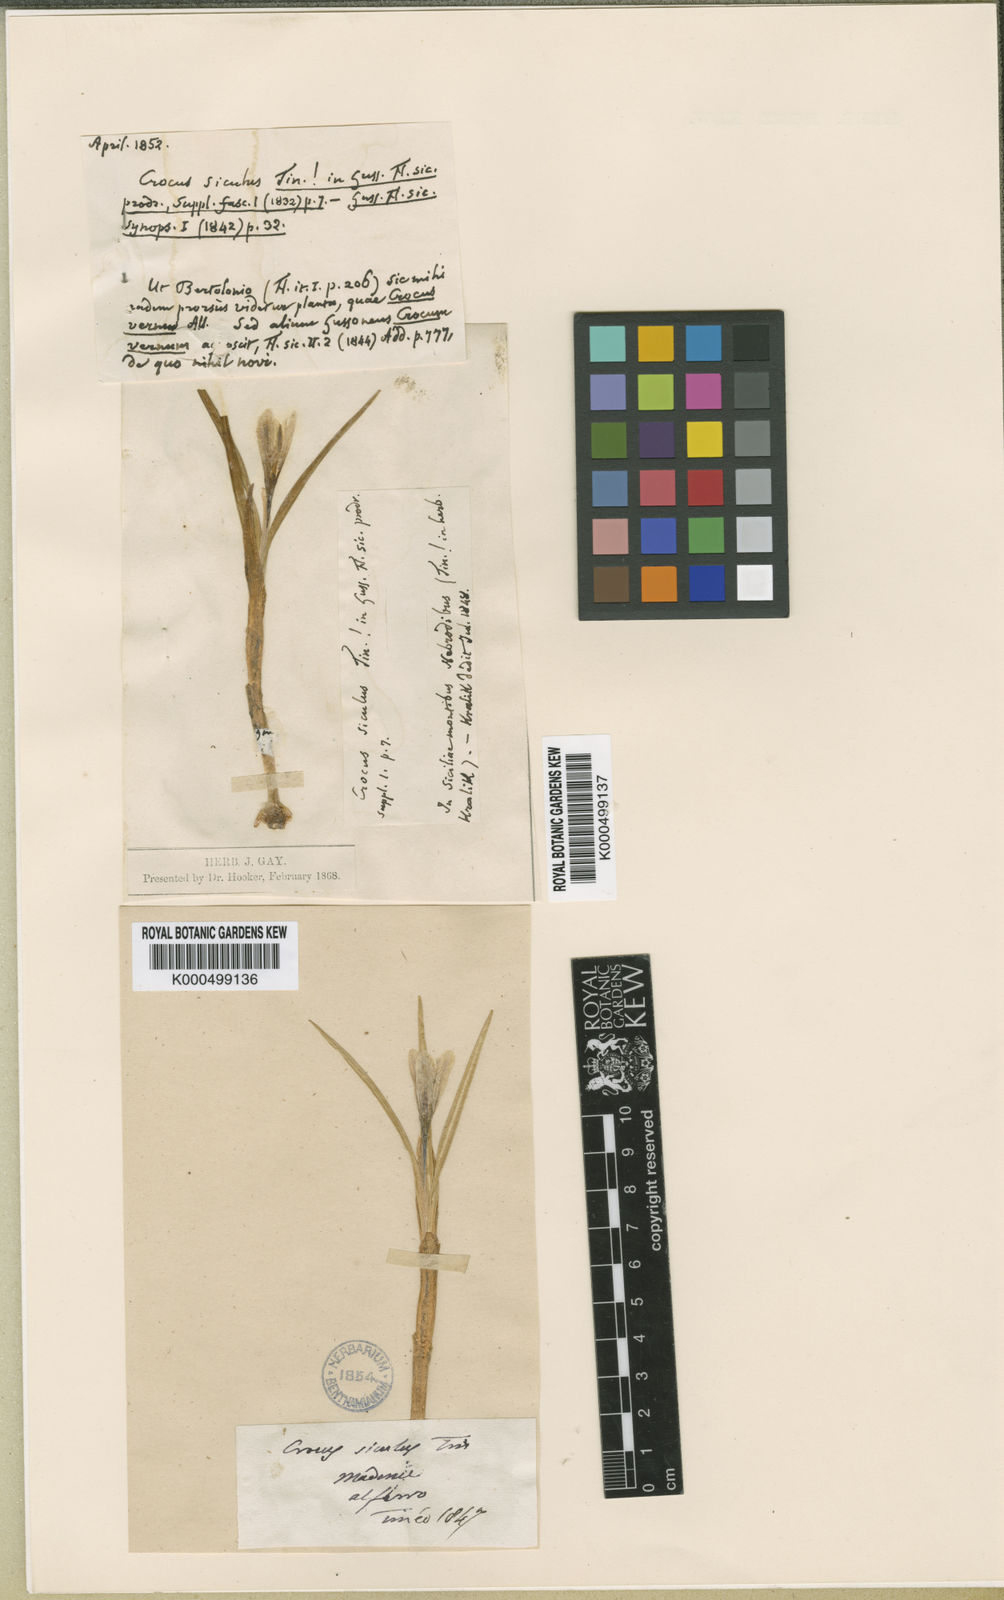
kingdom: Plantae
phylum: Tracheophyta
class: Liliopsida
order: Asparagales
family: Iridaceae
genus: Crocus
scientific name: Crocus
